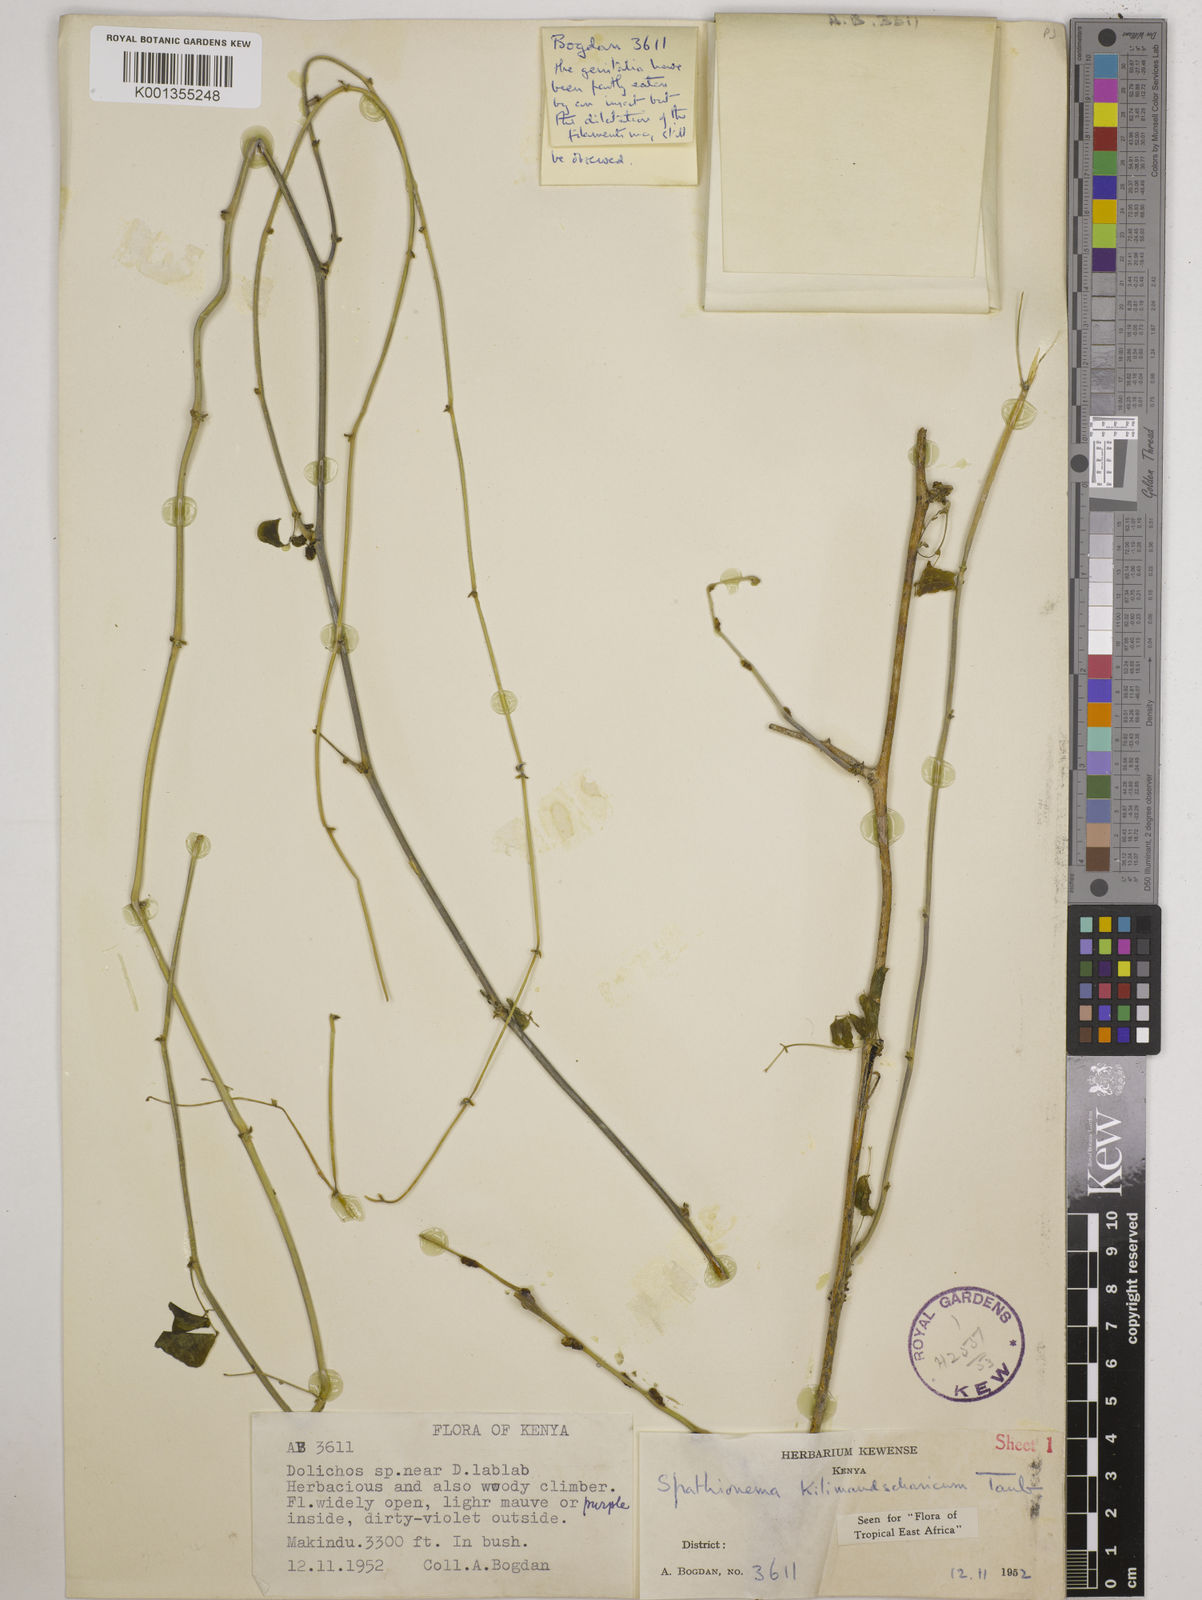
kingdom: Plantae
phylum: Tracheophyta
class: Magnoliopsida
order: Fabales
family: Fabaceae
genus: Spathionema
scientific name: Spathionema kilimandscharicum
